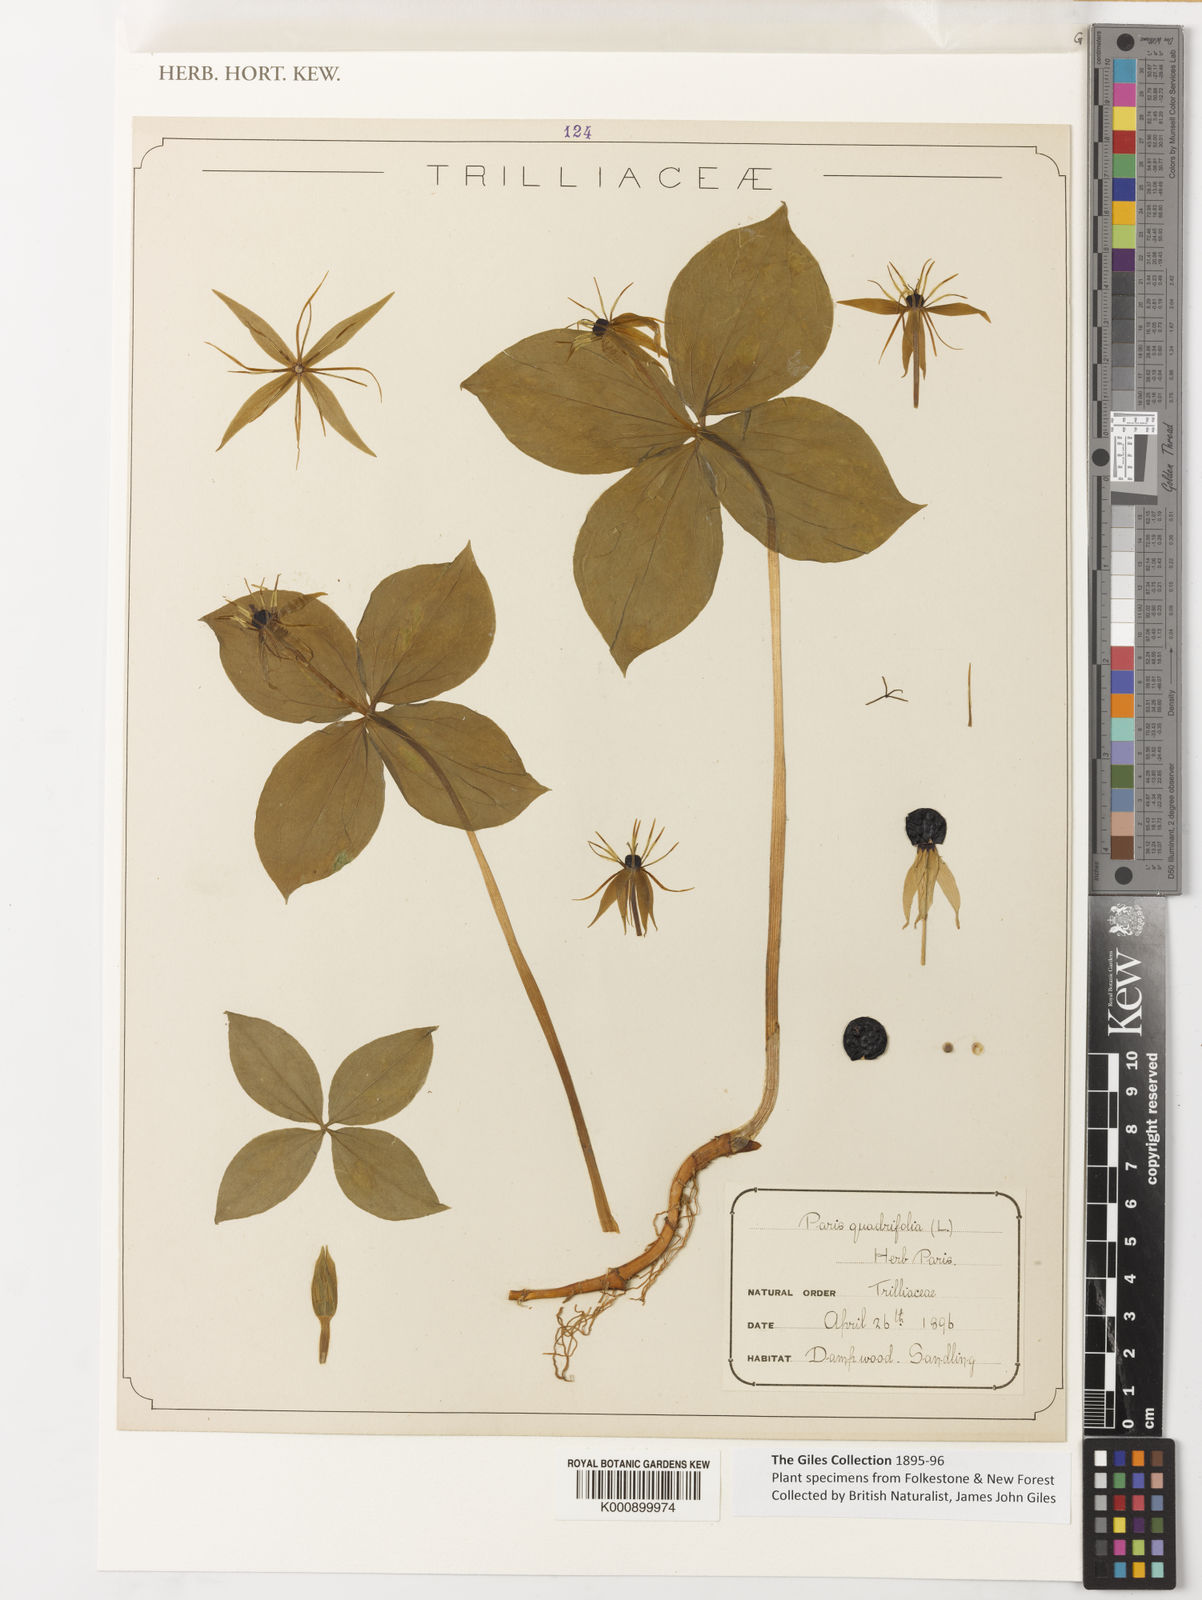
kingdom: Plantae
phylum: Tracheophyta
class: Liliopsida
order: Liliales
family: Melanthiaceae
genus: Paris
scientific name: Paris quadrifolia
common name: Herb-paris
